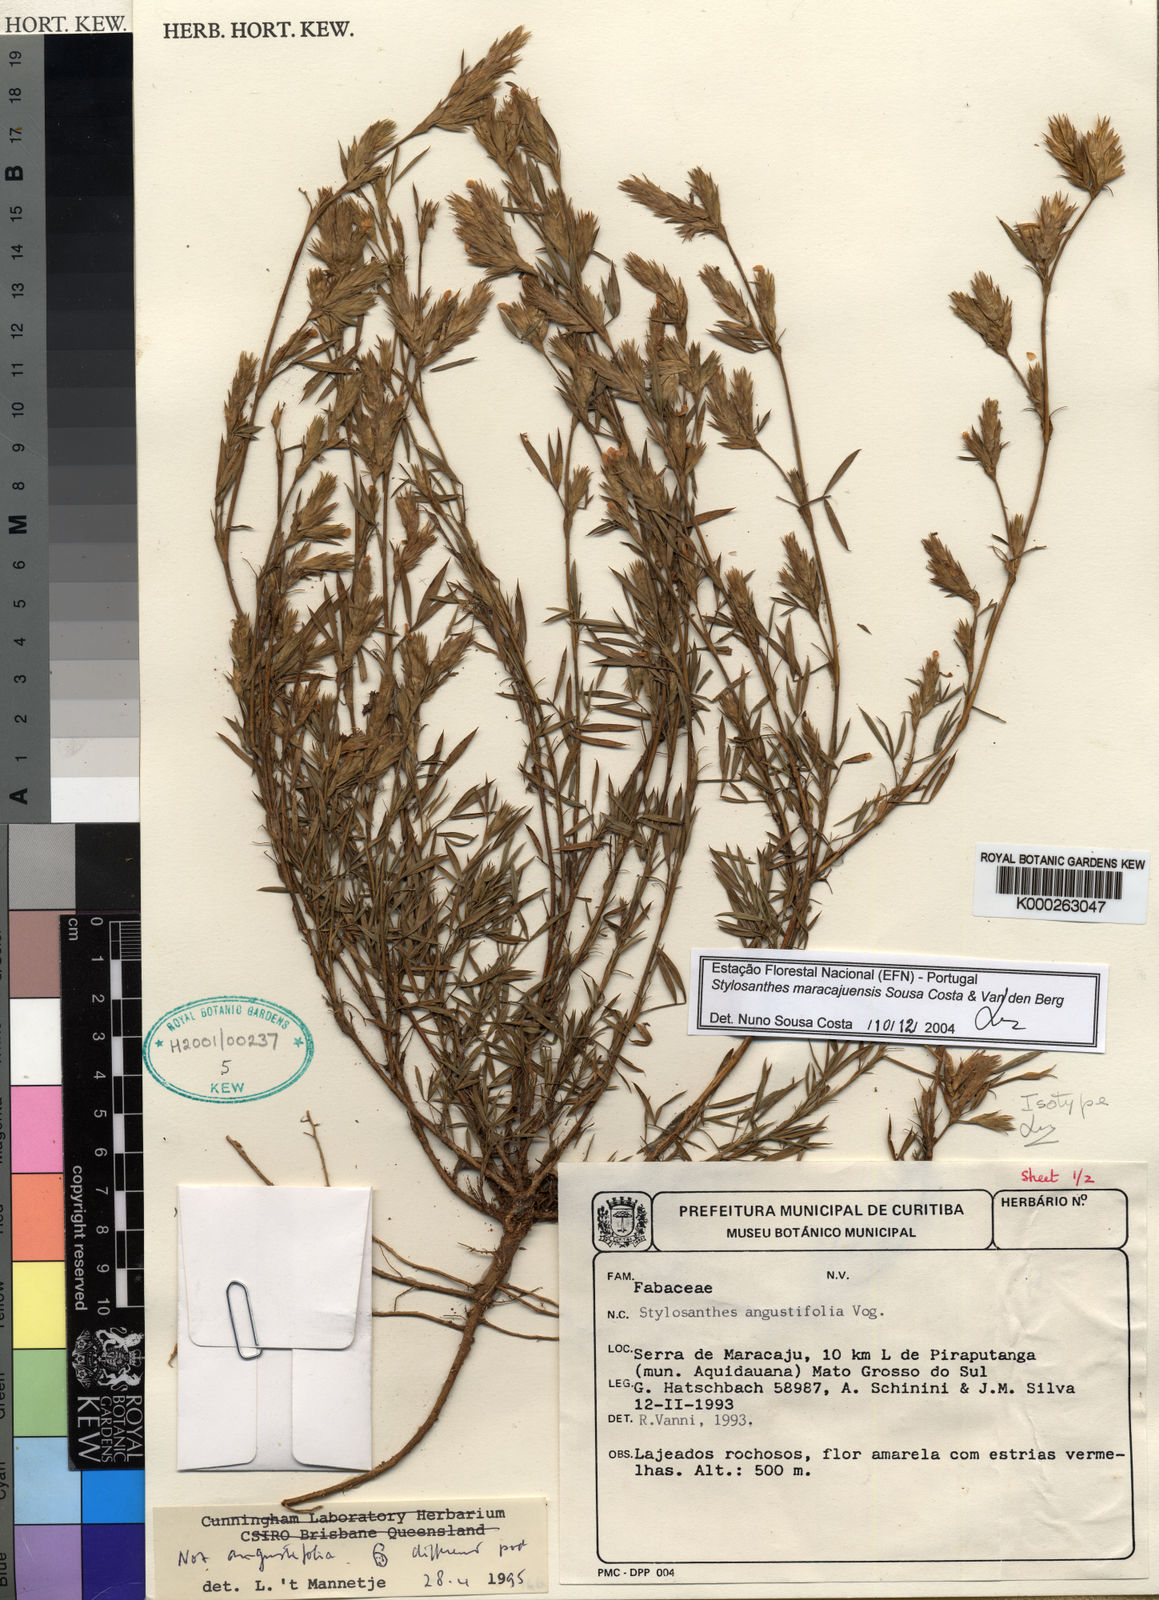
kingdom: Plantae
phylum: Tracheophyta
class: Magnoliopsida
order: Fabales
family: Fabaceae
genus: Stylosanthes
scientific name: Stylosanthes maracajuensis
